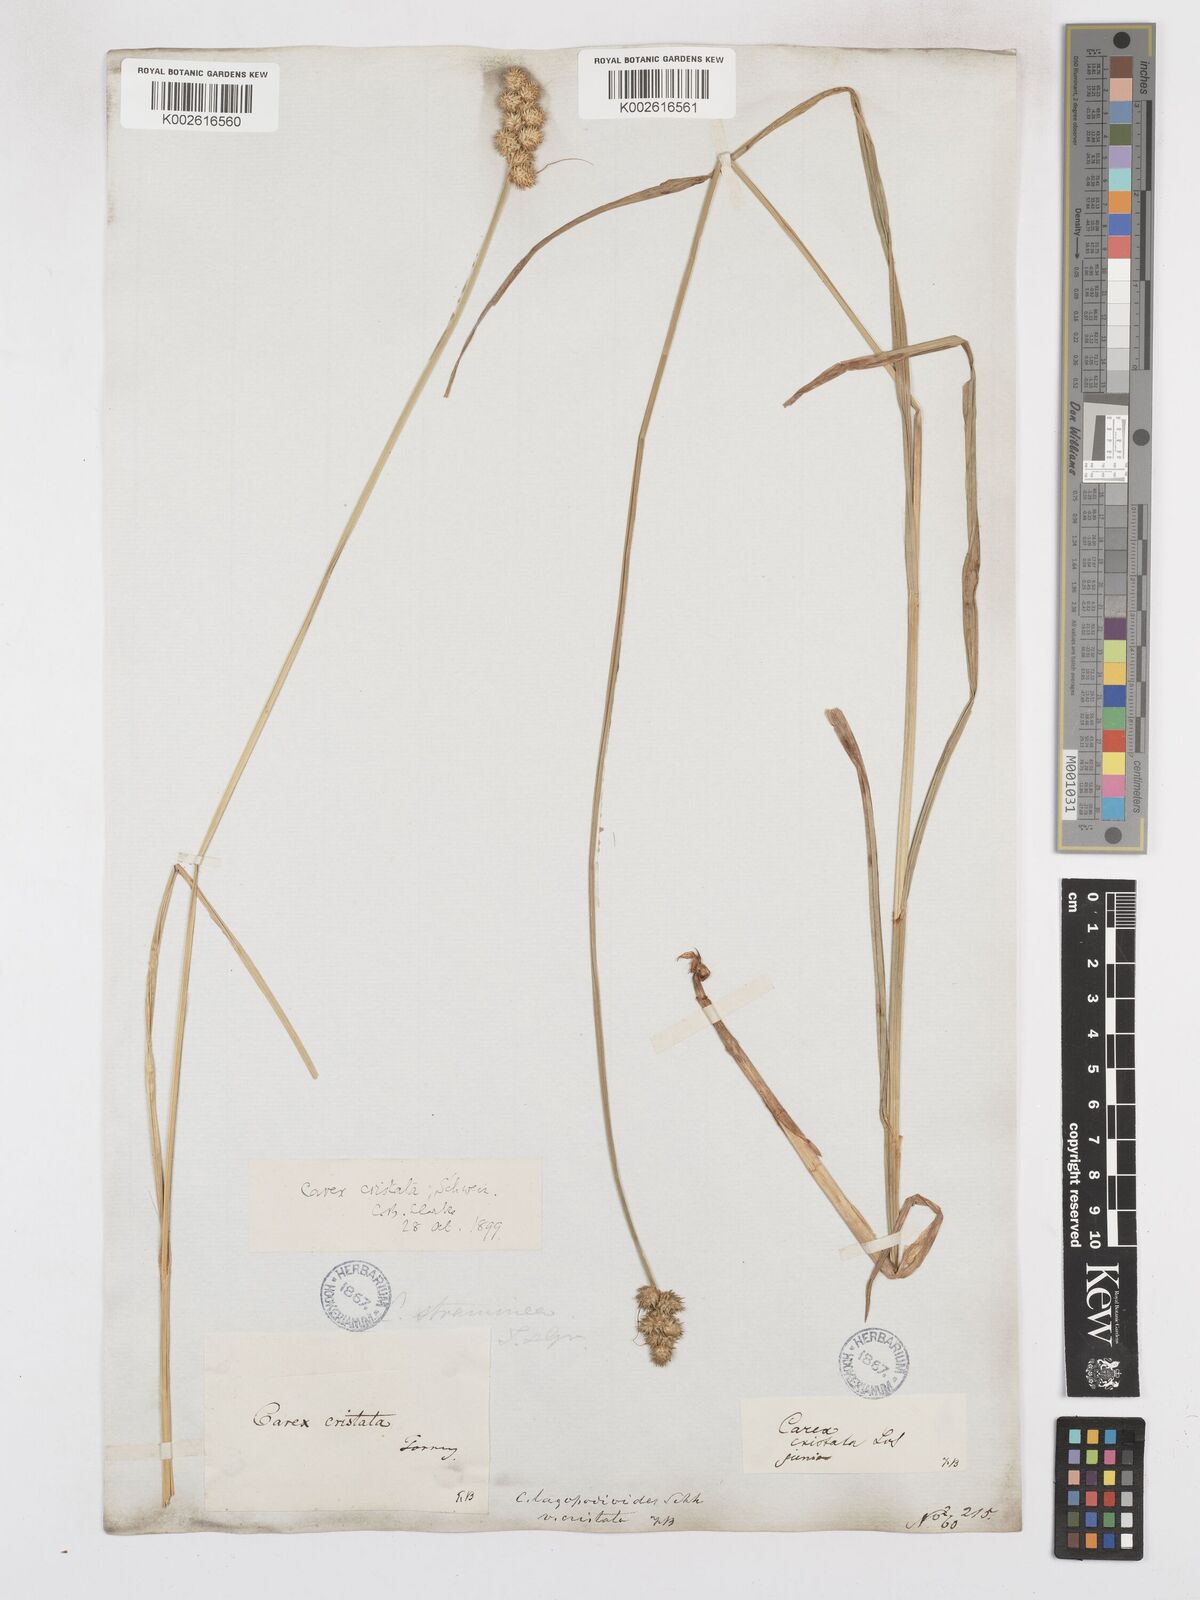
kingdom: Plantae
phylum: Tracheophyta
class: Liliopsida
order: Poales
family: Cyperaceae
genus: Carex
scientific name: Carex cristatella
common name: Crested oval sedge
